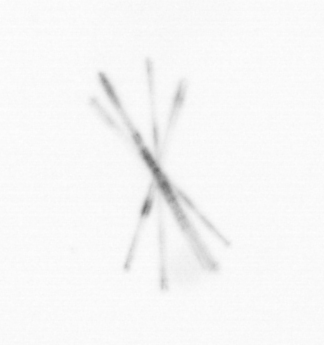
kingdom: Chromista
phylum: Ochrophyta
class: Bacillariophyceae
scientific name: Bacillariophyceae
